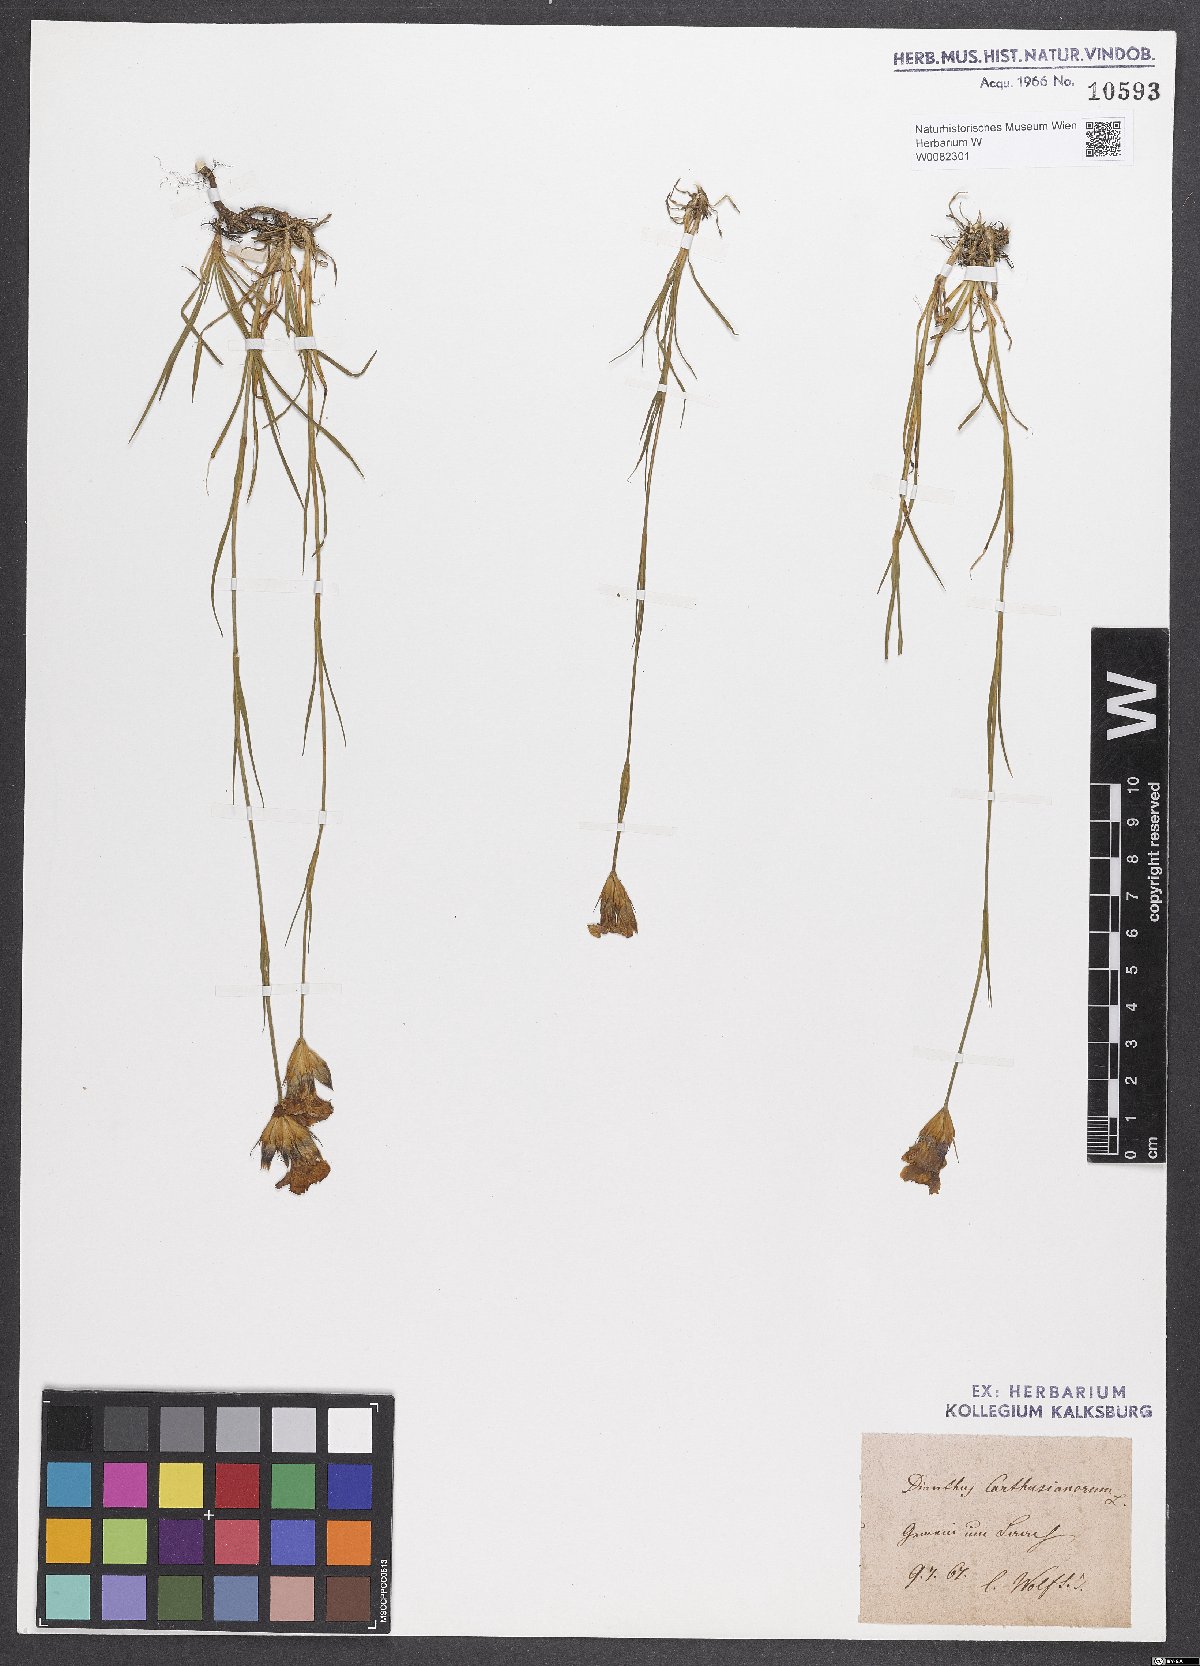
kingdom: Plantae
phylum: Tracheophyta
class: Magnoliopsida
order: Caryophyllales
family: Caryophyllaceae
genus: Dianthus
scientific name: Dianthus carthusianorum
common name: Carthusian pink
